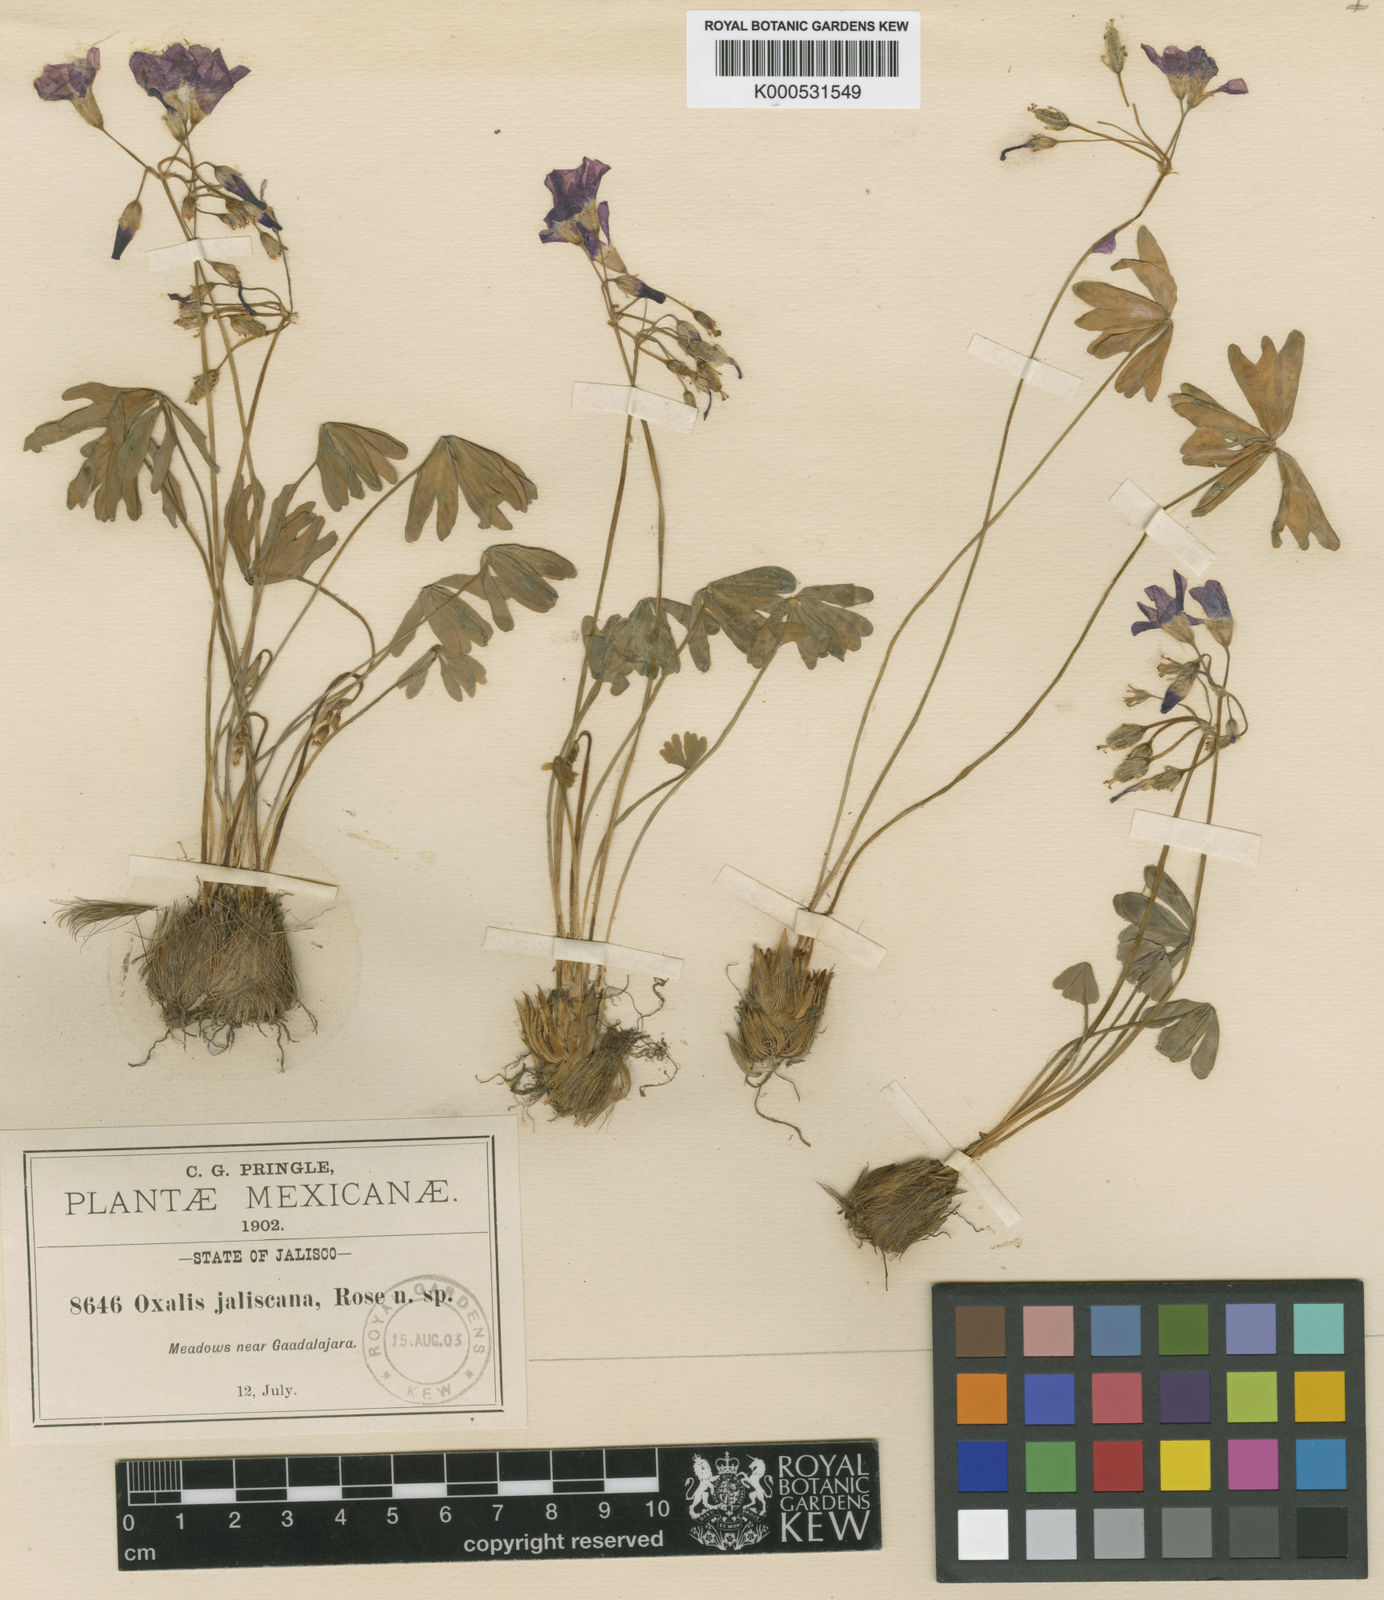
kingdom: Plantae
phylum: Tracheophyta
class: Magnoliopsida
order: Oxalidales
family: Oxalidaceae
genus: Oxalis
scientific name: Oxalis
